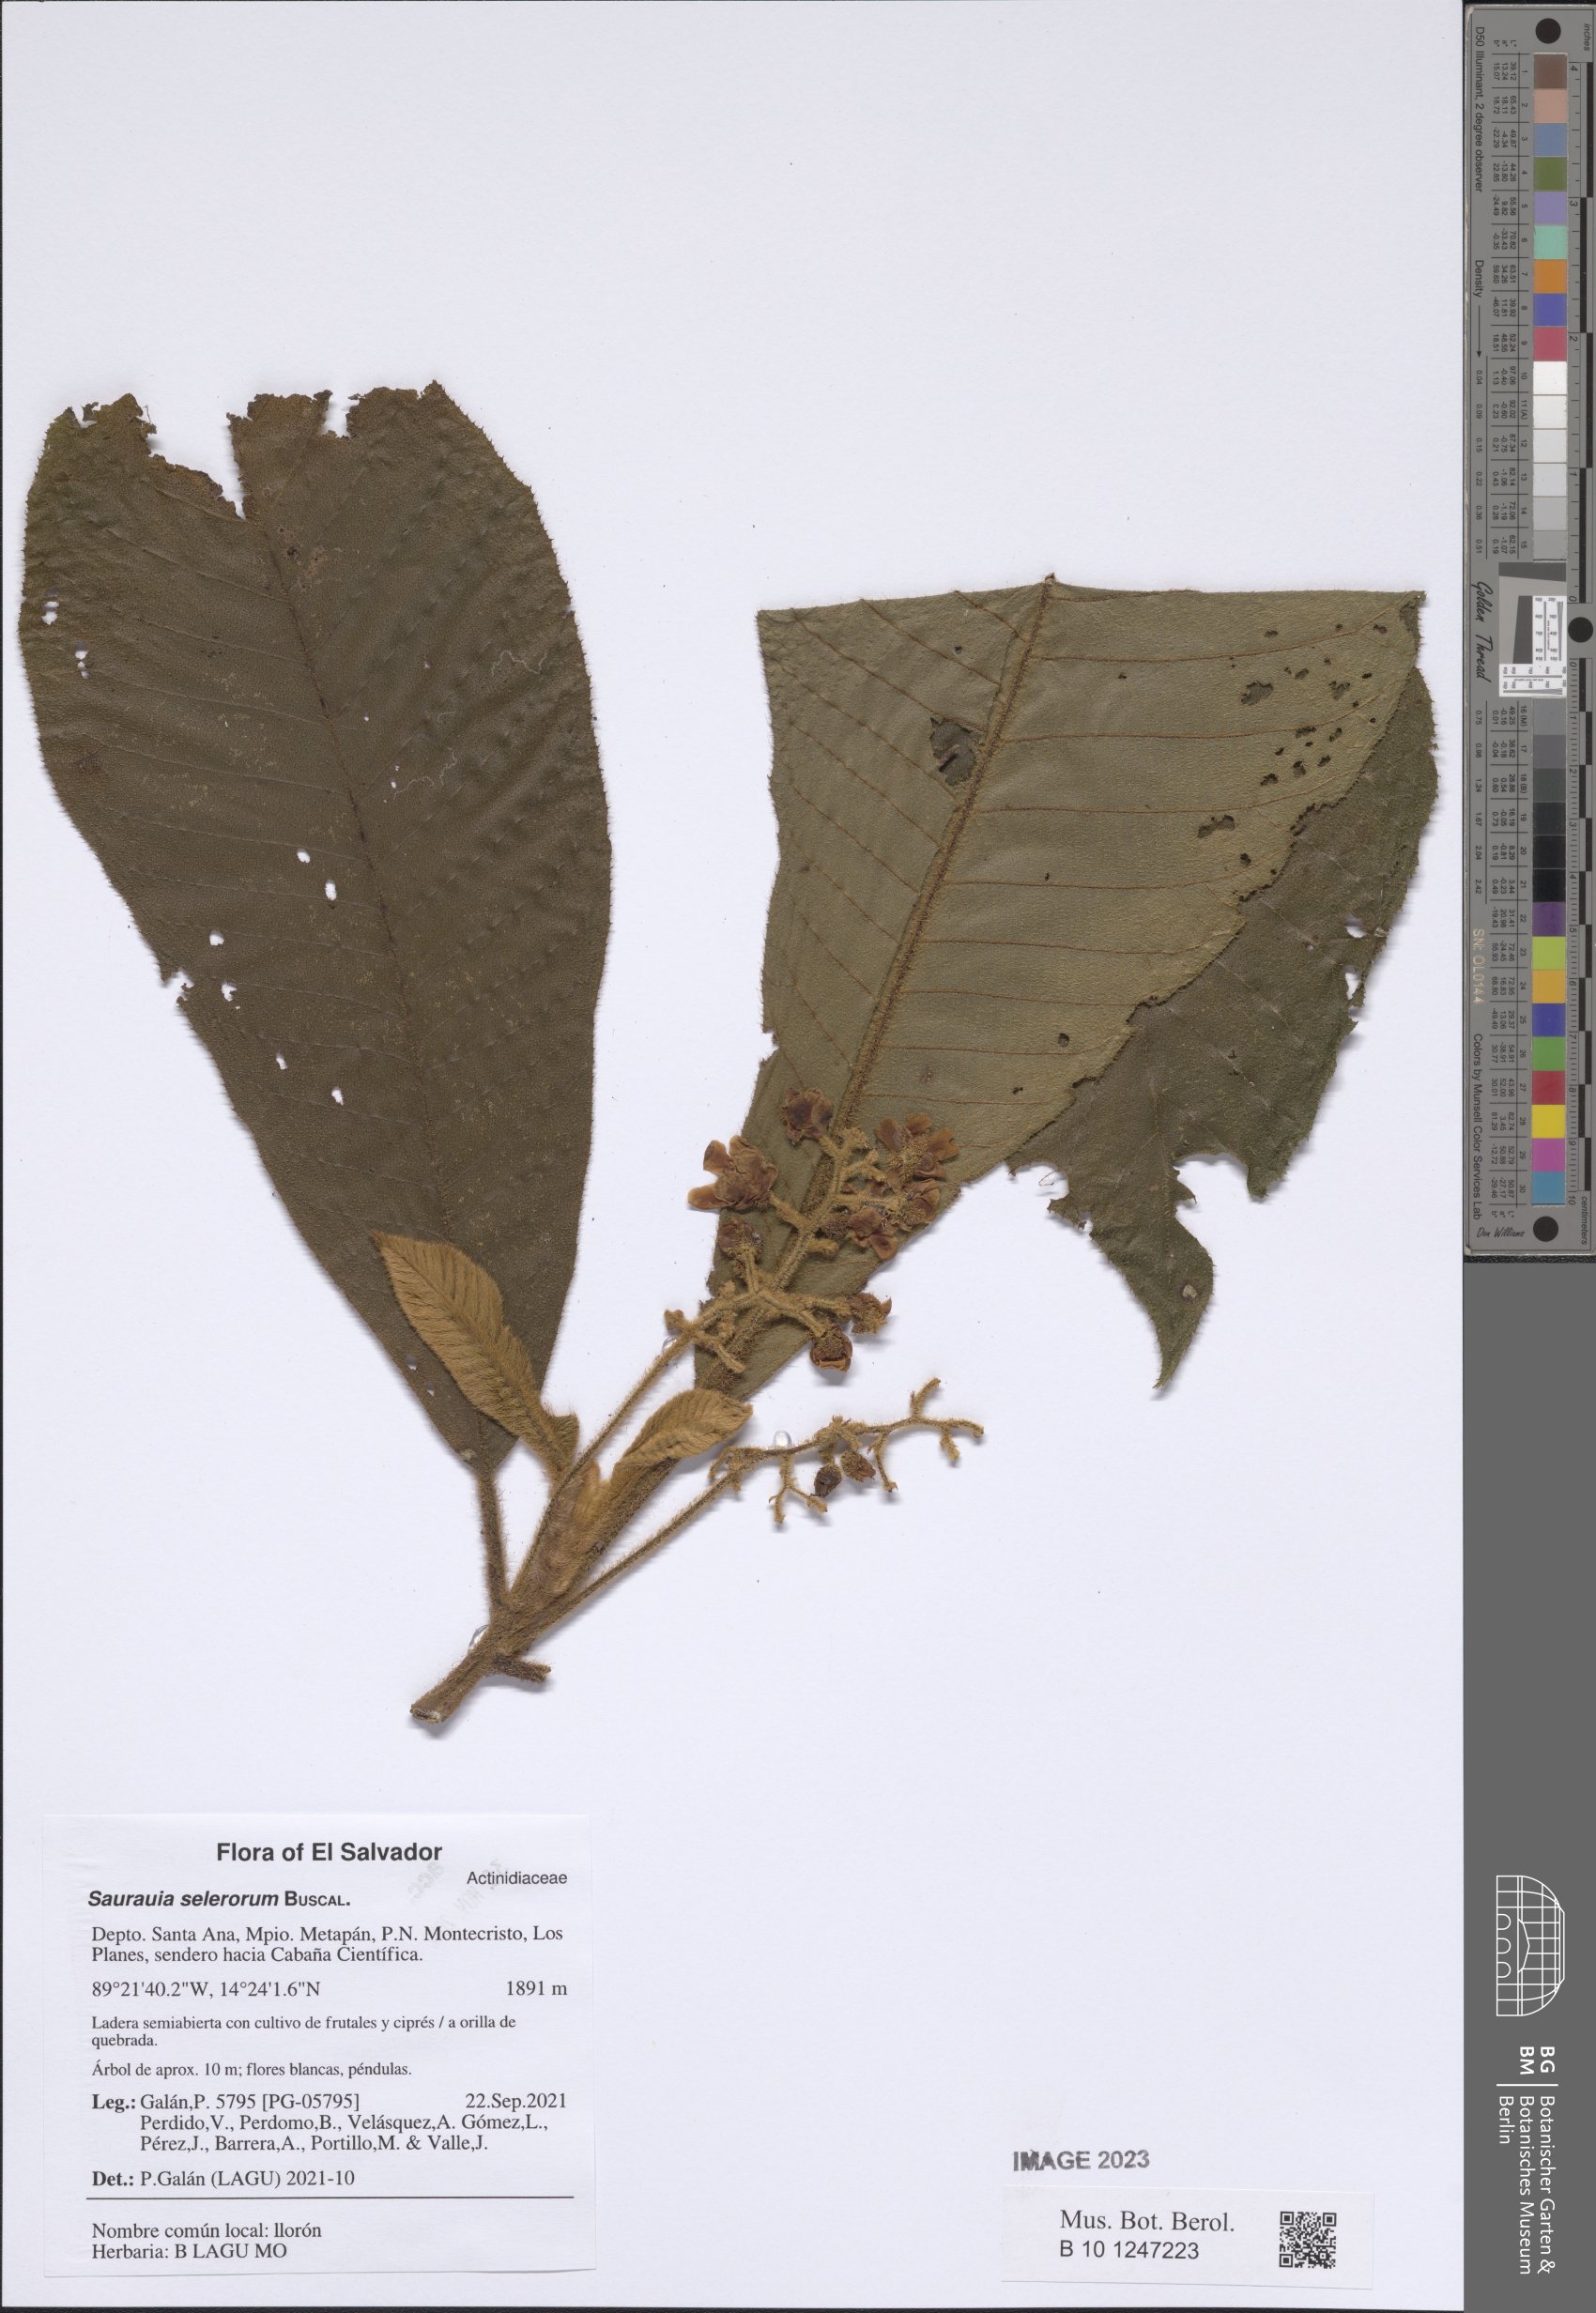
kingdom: Plantae
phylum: Tracheophyta
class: Magnoliopsida
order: Ericales
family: Actinidiaceae
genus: Saurauia
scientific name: Saurauia selerorum
